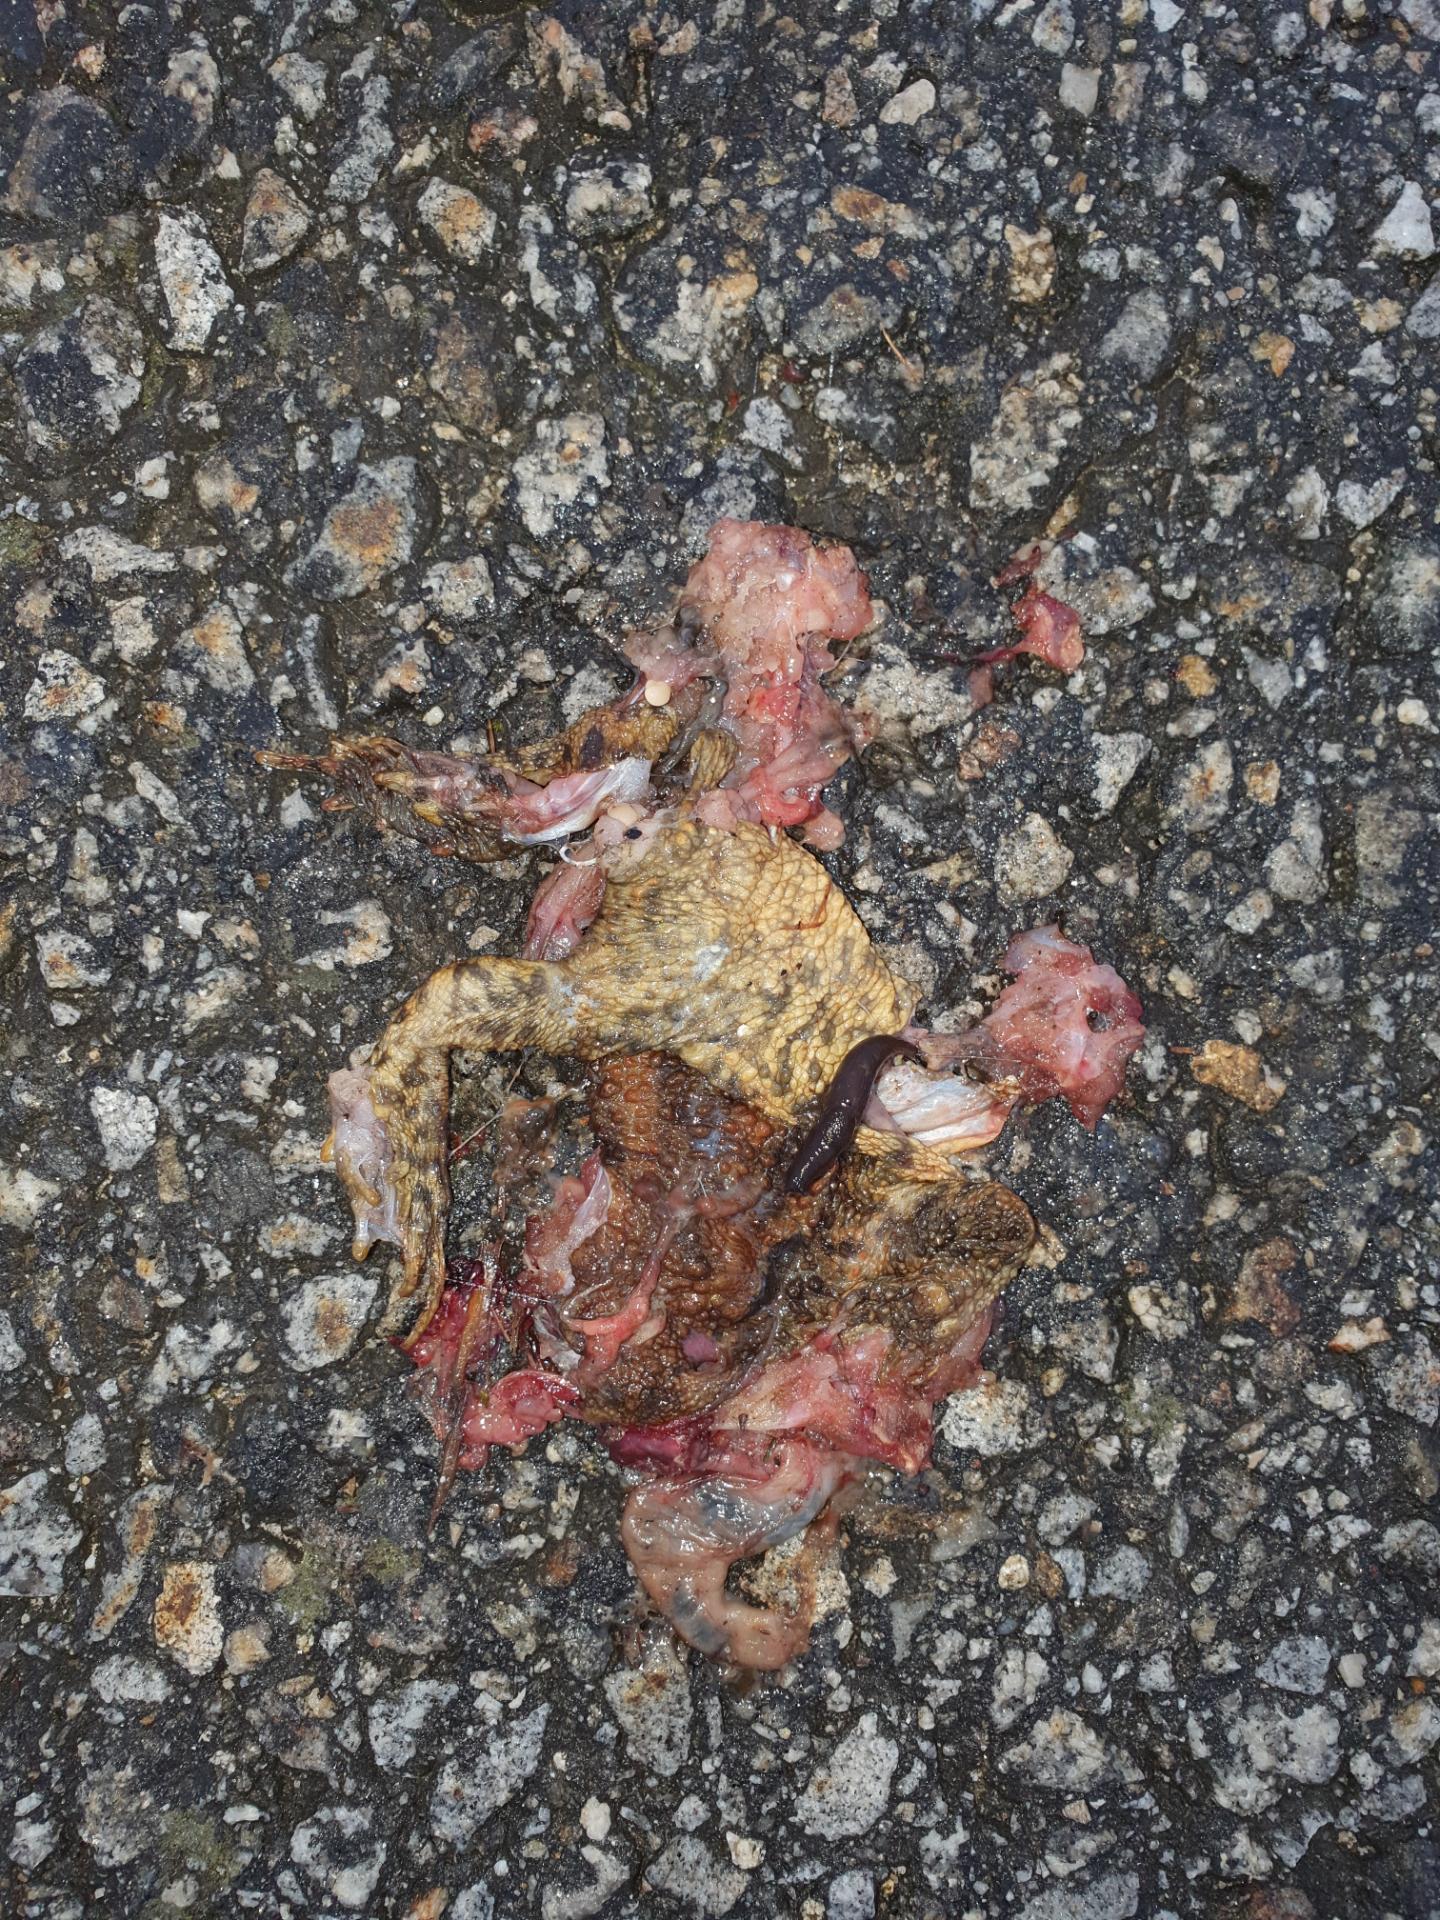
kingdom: Animalia
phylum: Chordata
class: Amphibia
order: Anura
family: Bufonidae
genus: Bufo
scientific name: Bufo bufo
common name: Common toad
